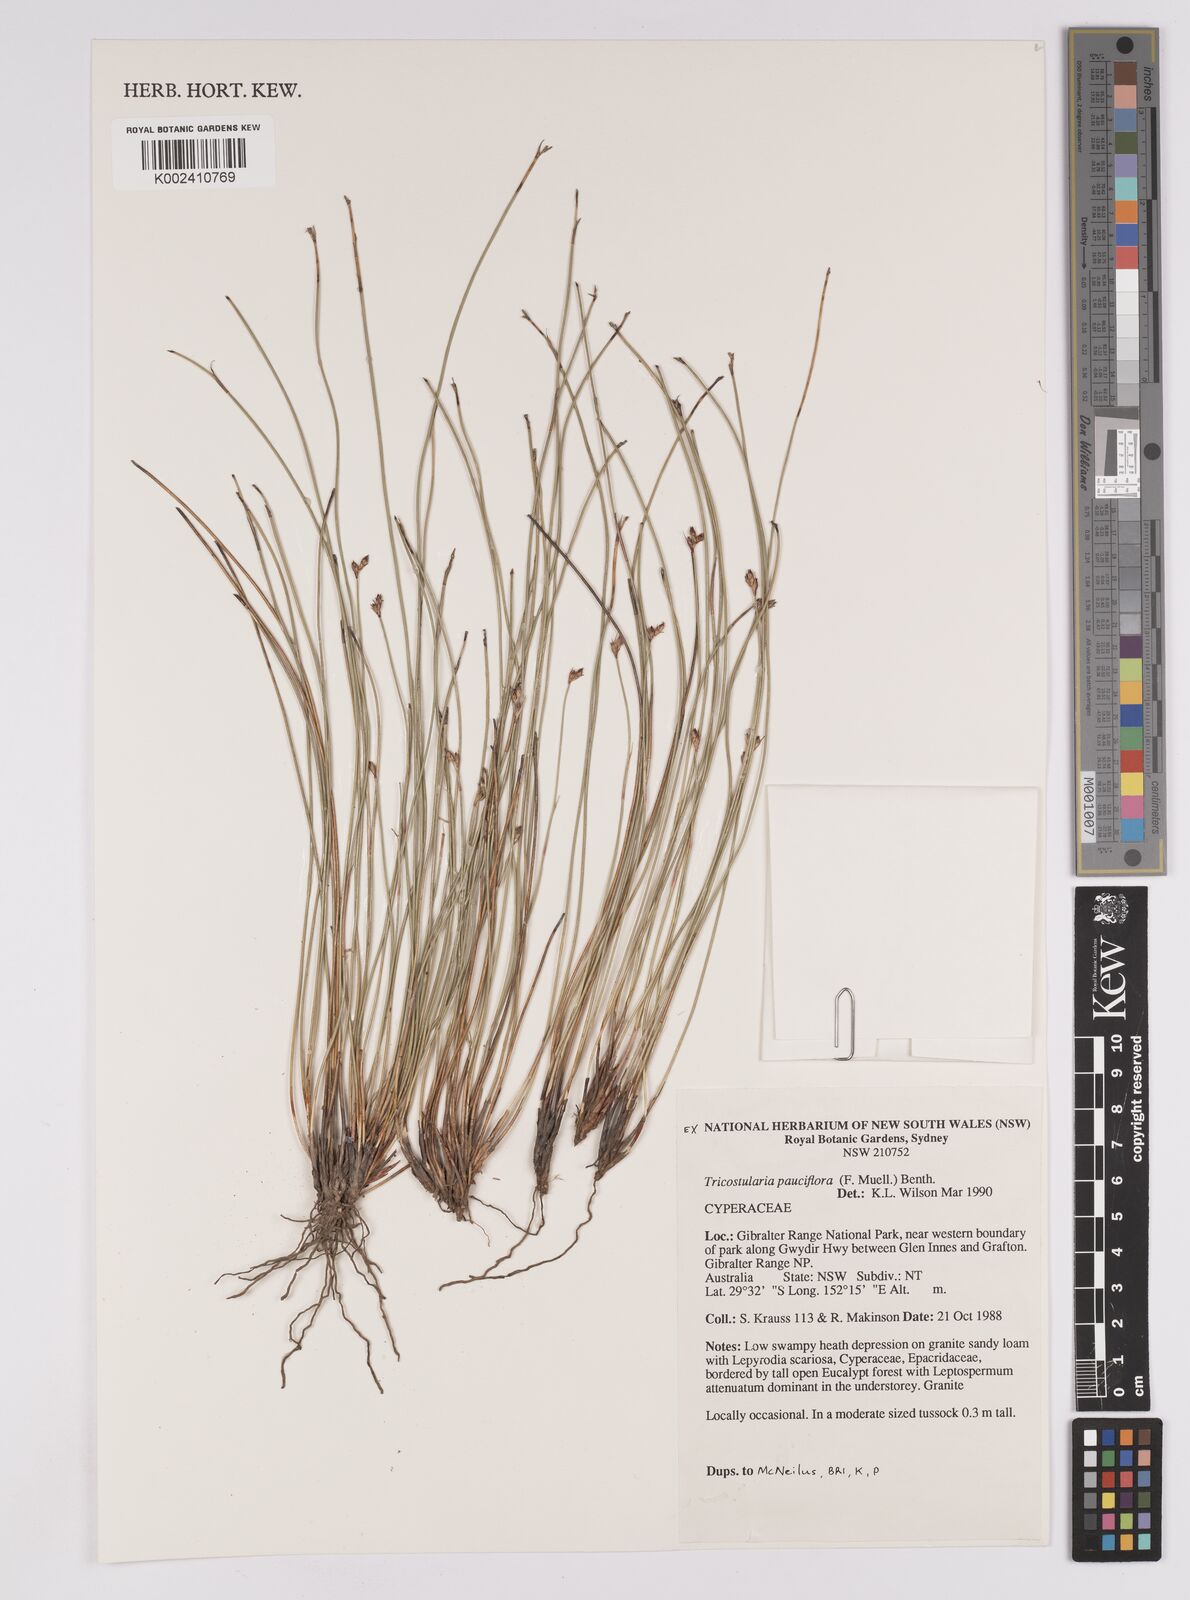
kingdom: Plantae
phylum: Tracheophyta
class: Liliopsida
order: Poales
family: Cyperaceae
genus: Tricostularia
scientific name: Tricostularia pauciflora
